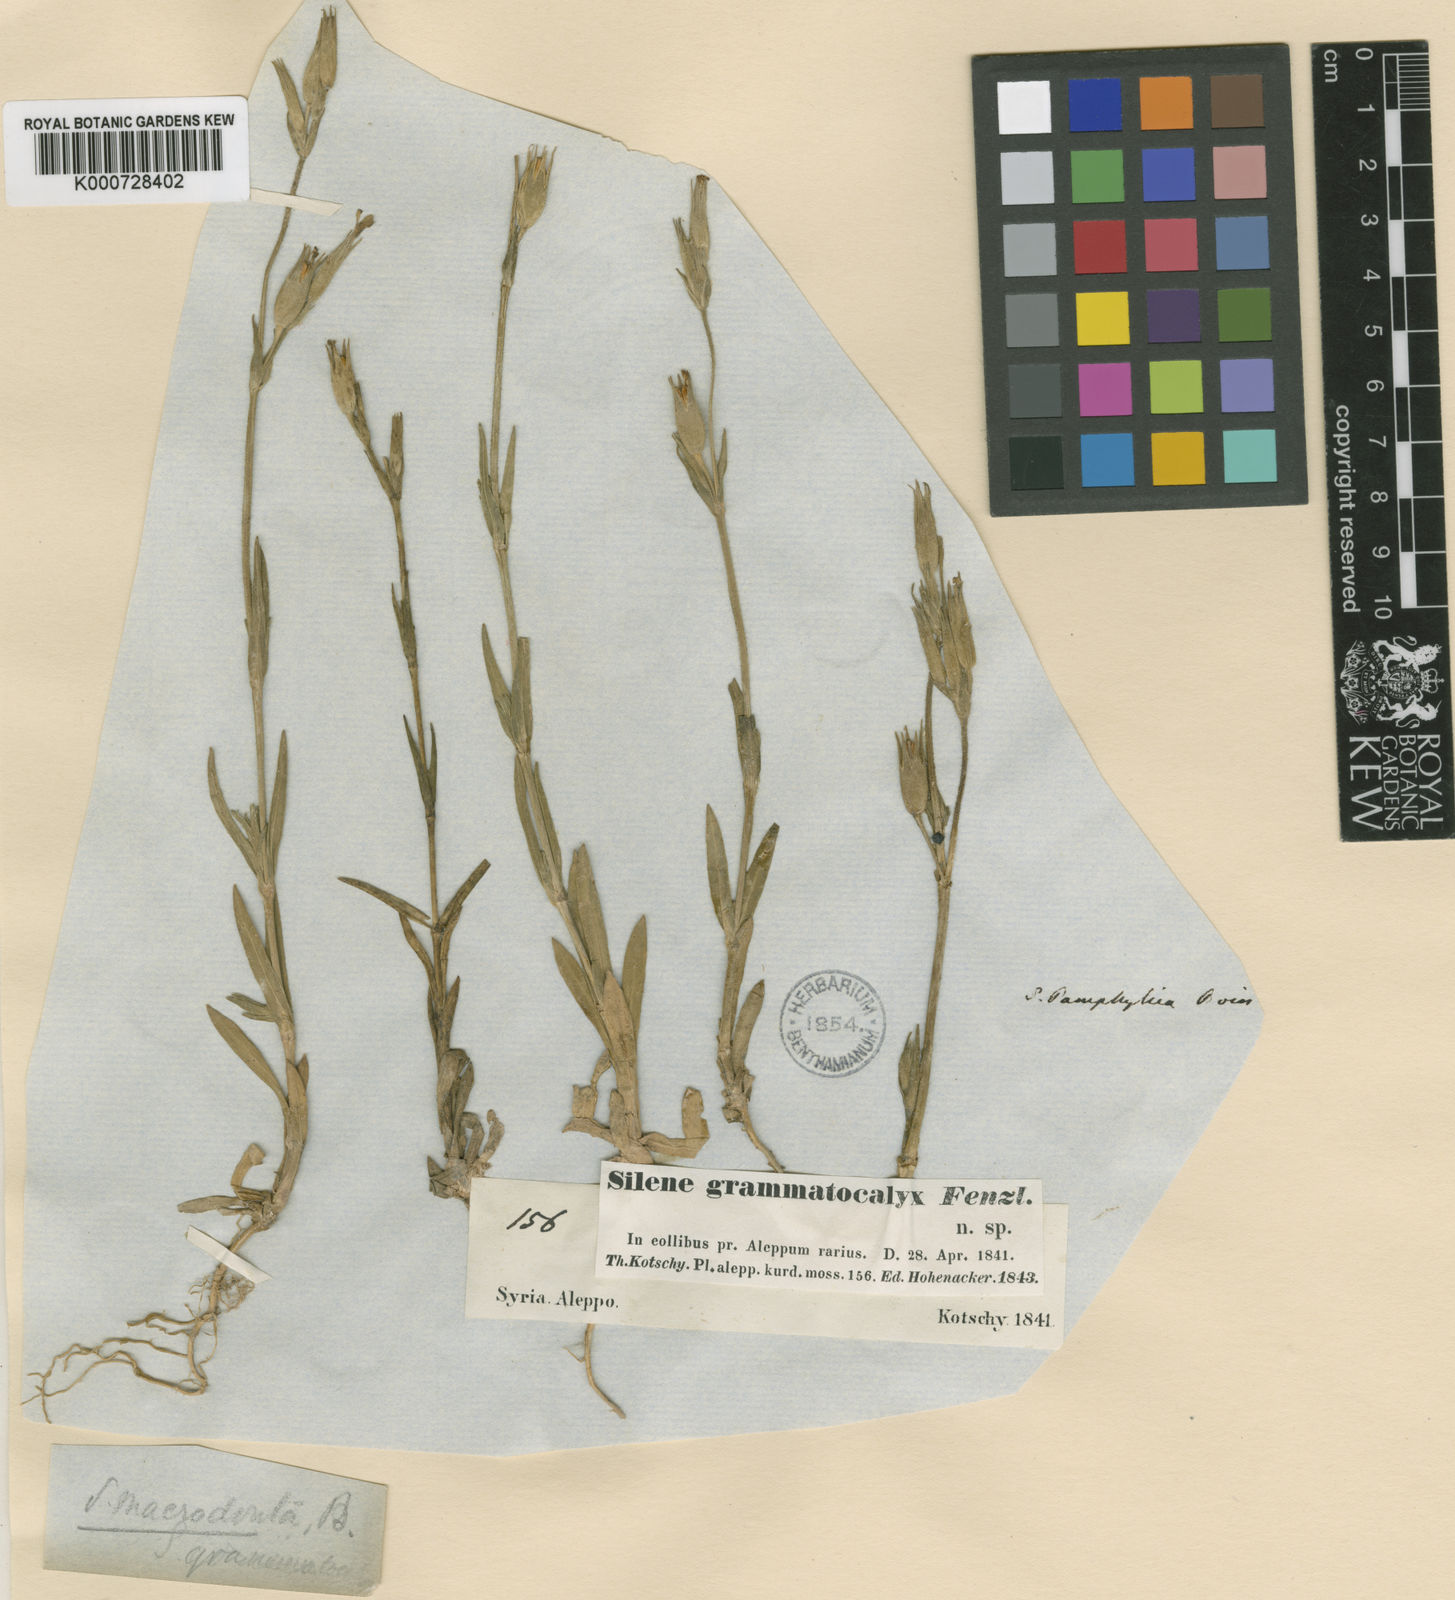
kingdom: Plantae
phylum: Tracheophyta
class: Magnoliopsida
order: Caryophyllales
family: Caryophyllaceae
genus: Silene
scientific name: Silene macrodonta
